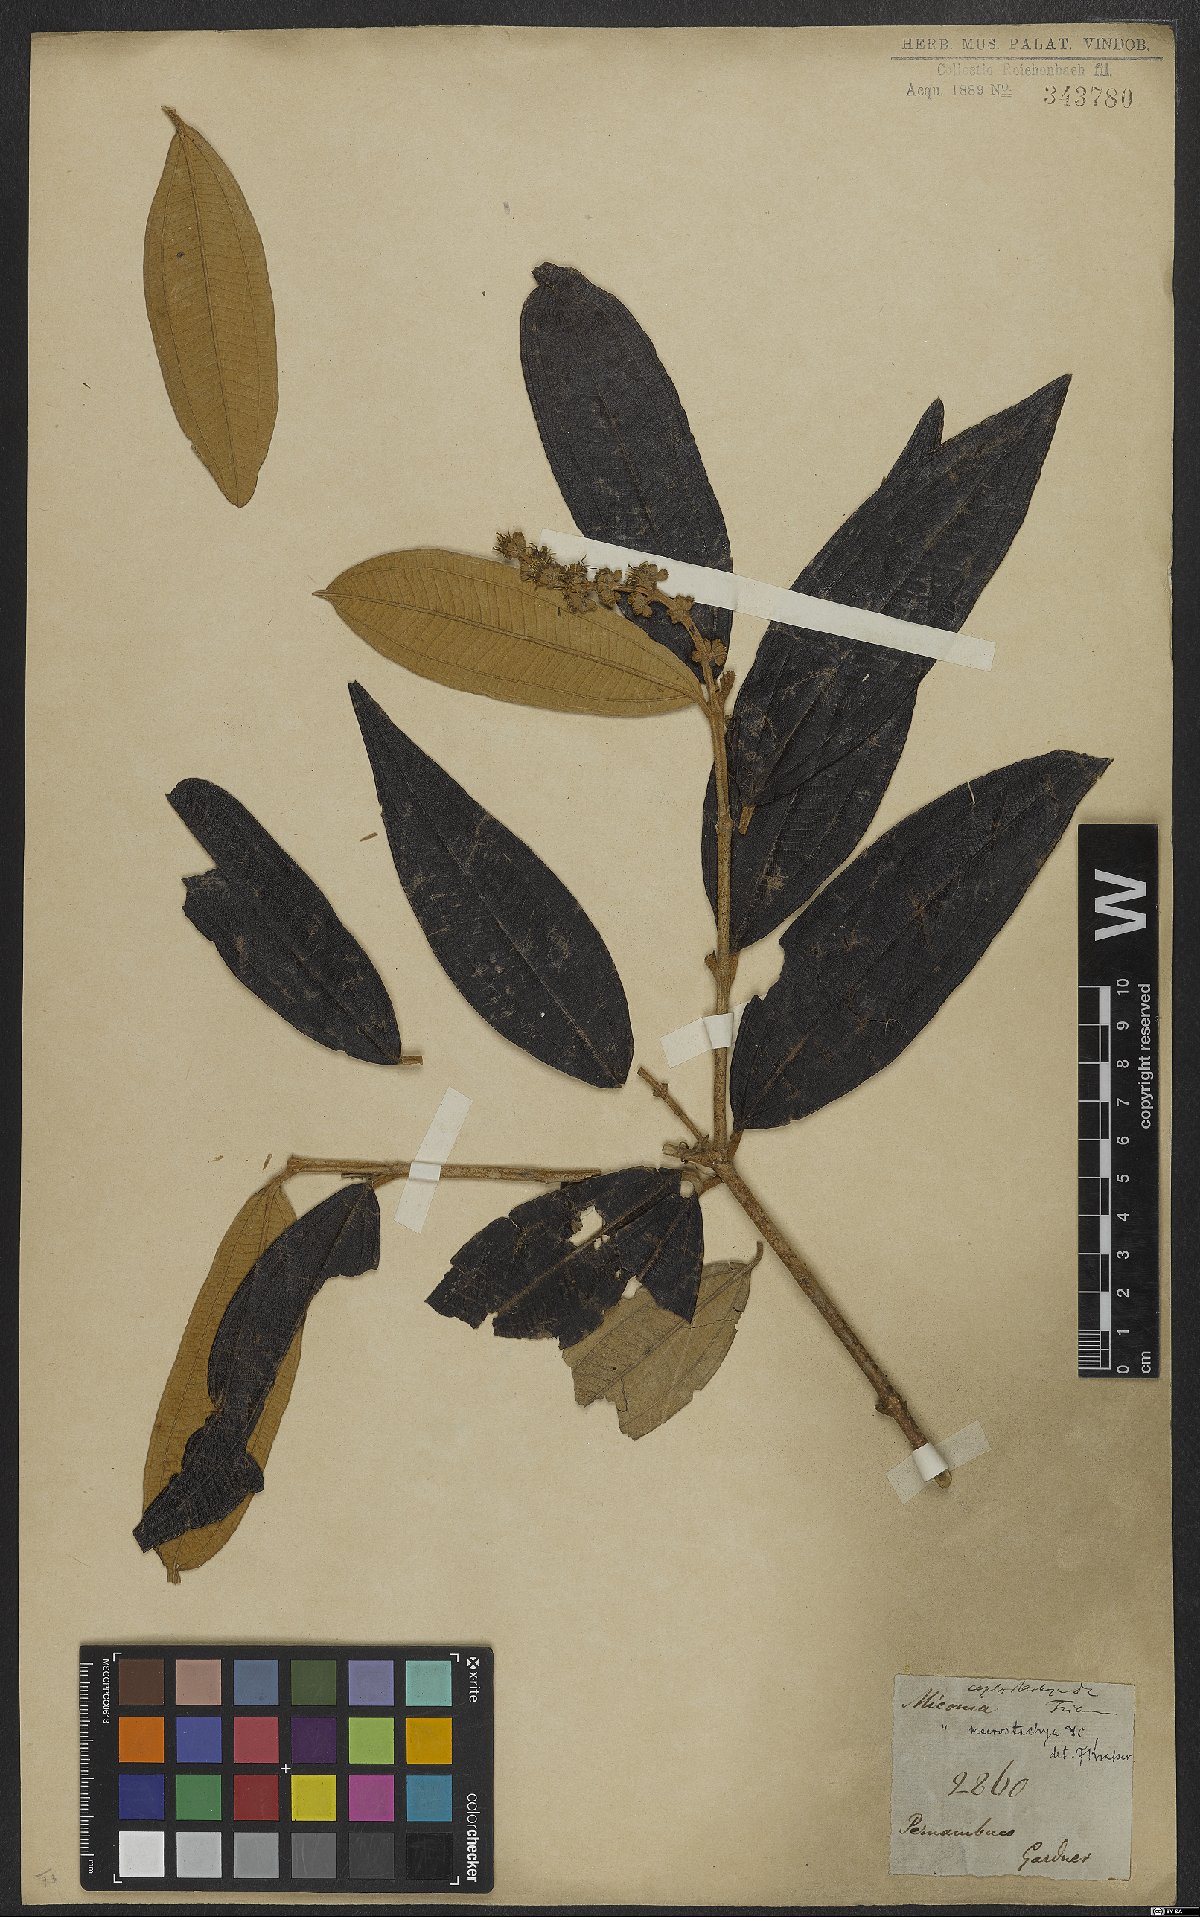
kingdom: Plantae
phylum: Tracheophyta
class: Magnoliopsida
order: Myrtales
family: Melastomataceae
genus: Miconia
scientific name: Miconia aplostachya
